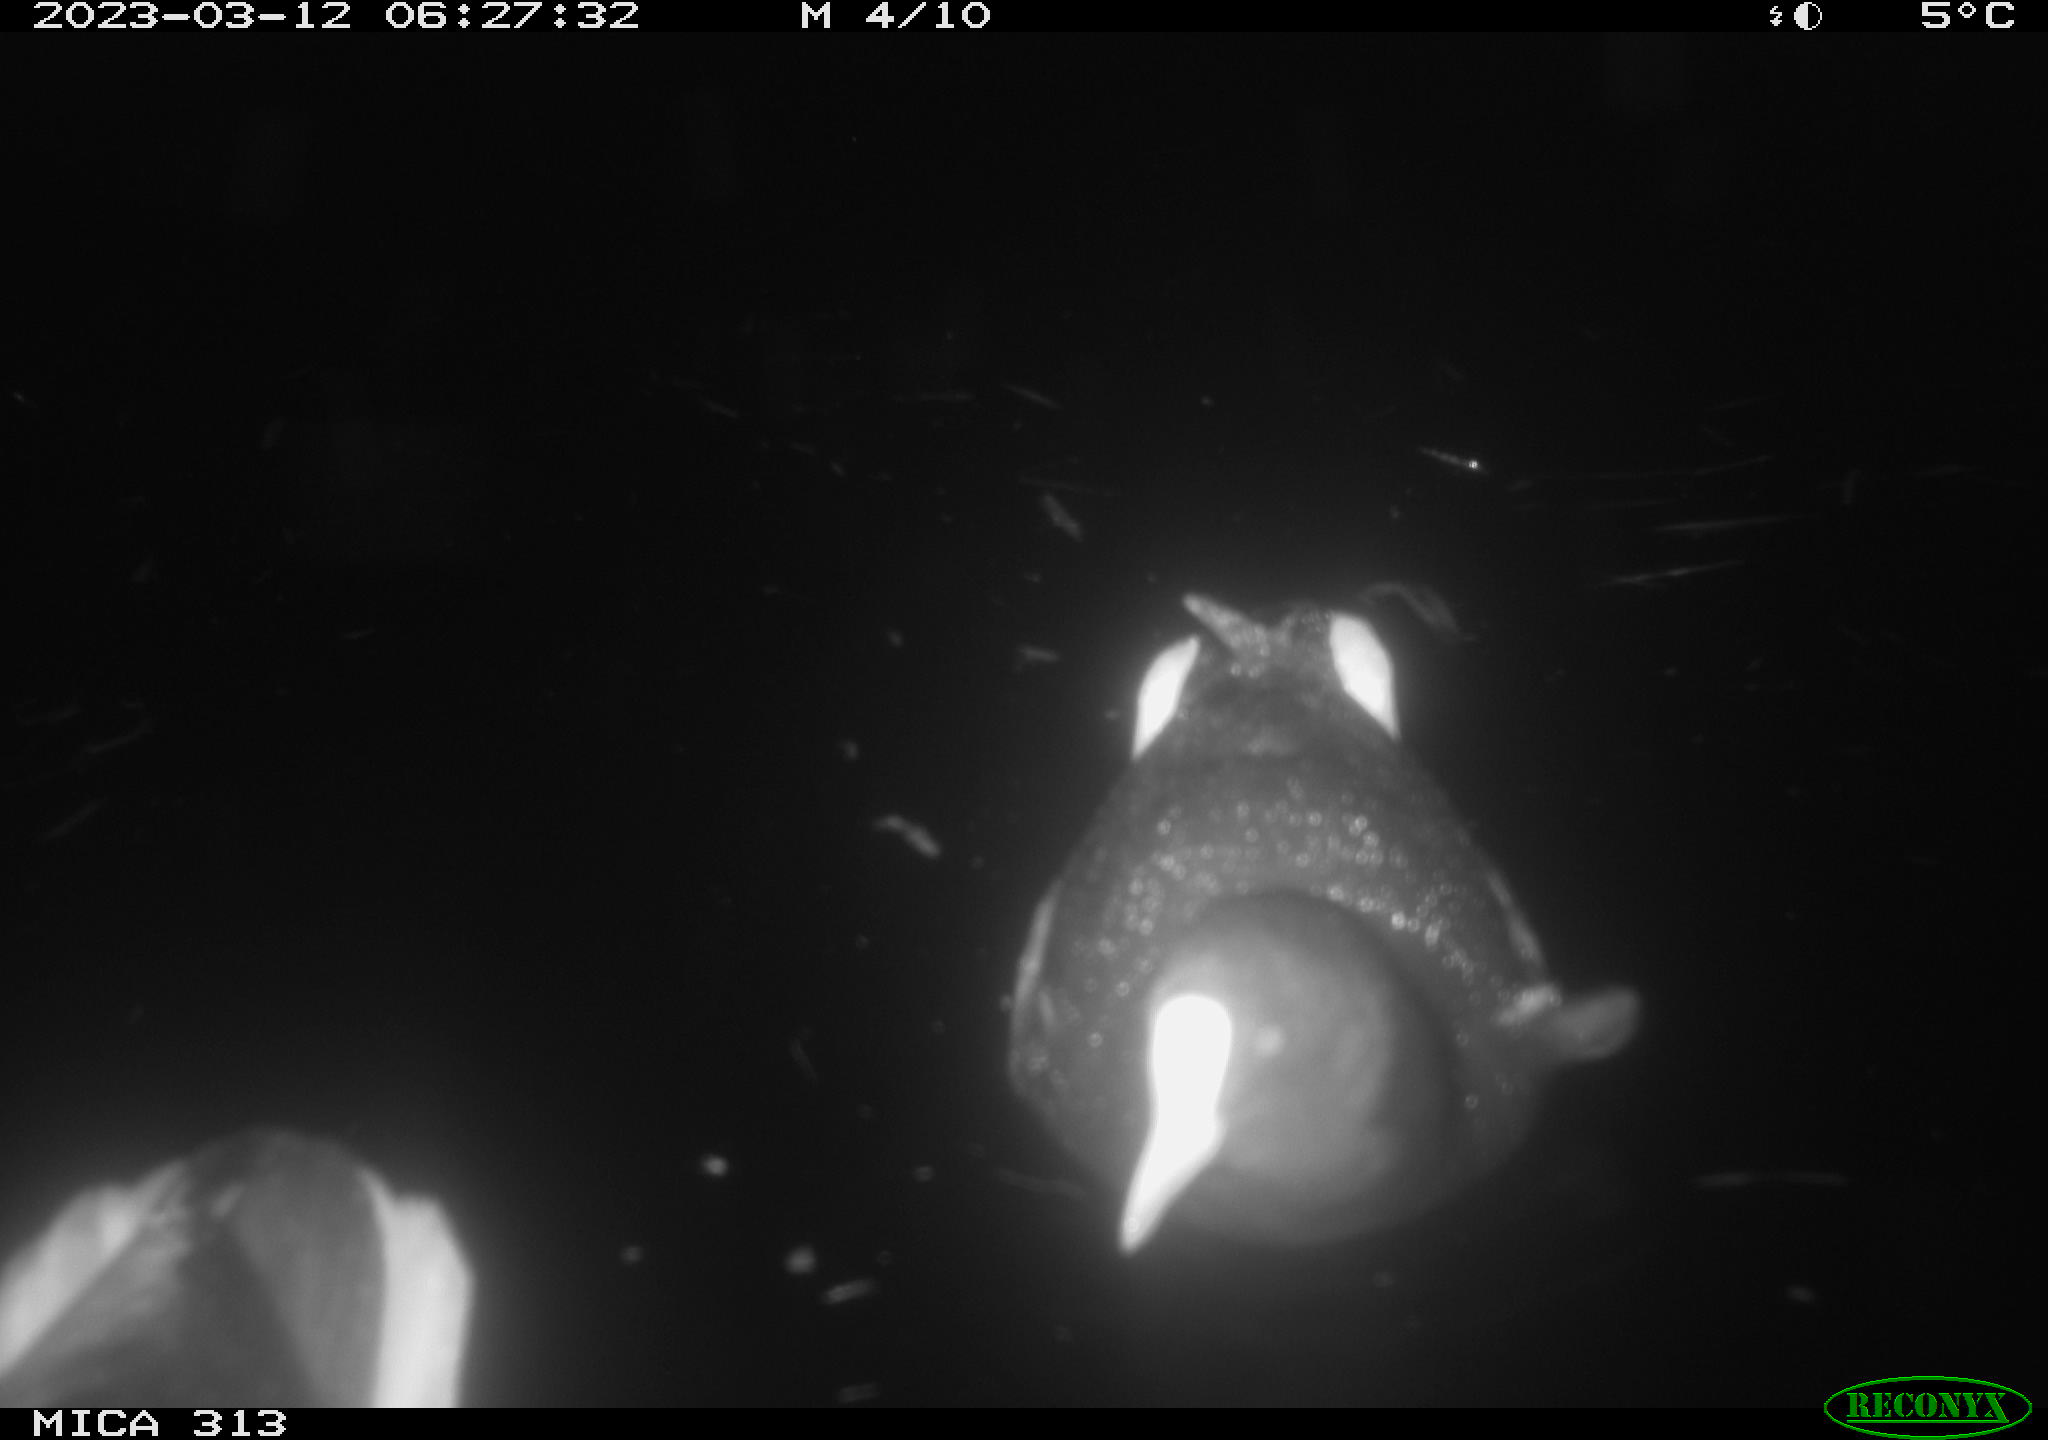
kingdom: Animalia
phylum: Chordata
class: Aves
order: Gruiformes
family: Rallidae
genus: Fulica
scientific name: Fulica atra
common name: Eurasian coot
